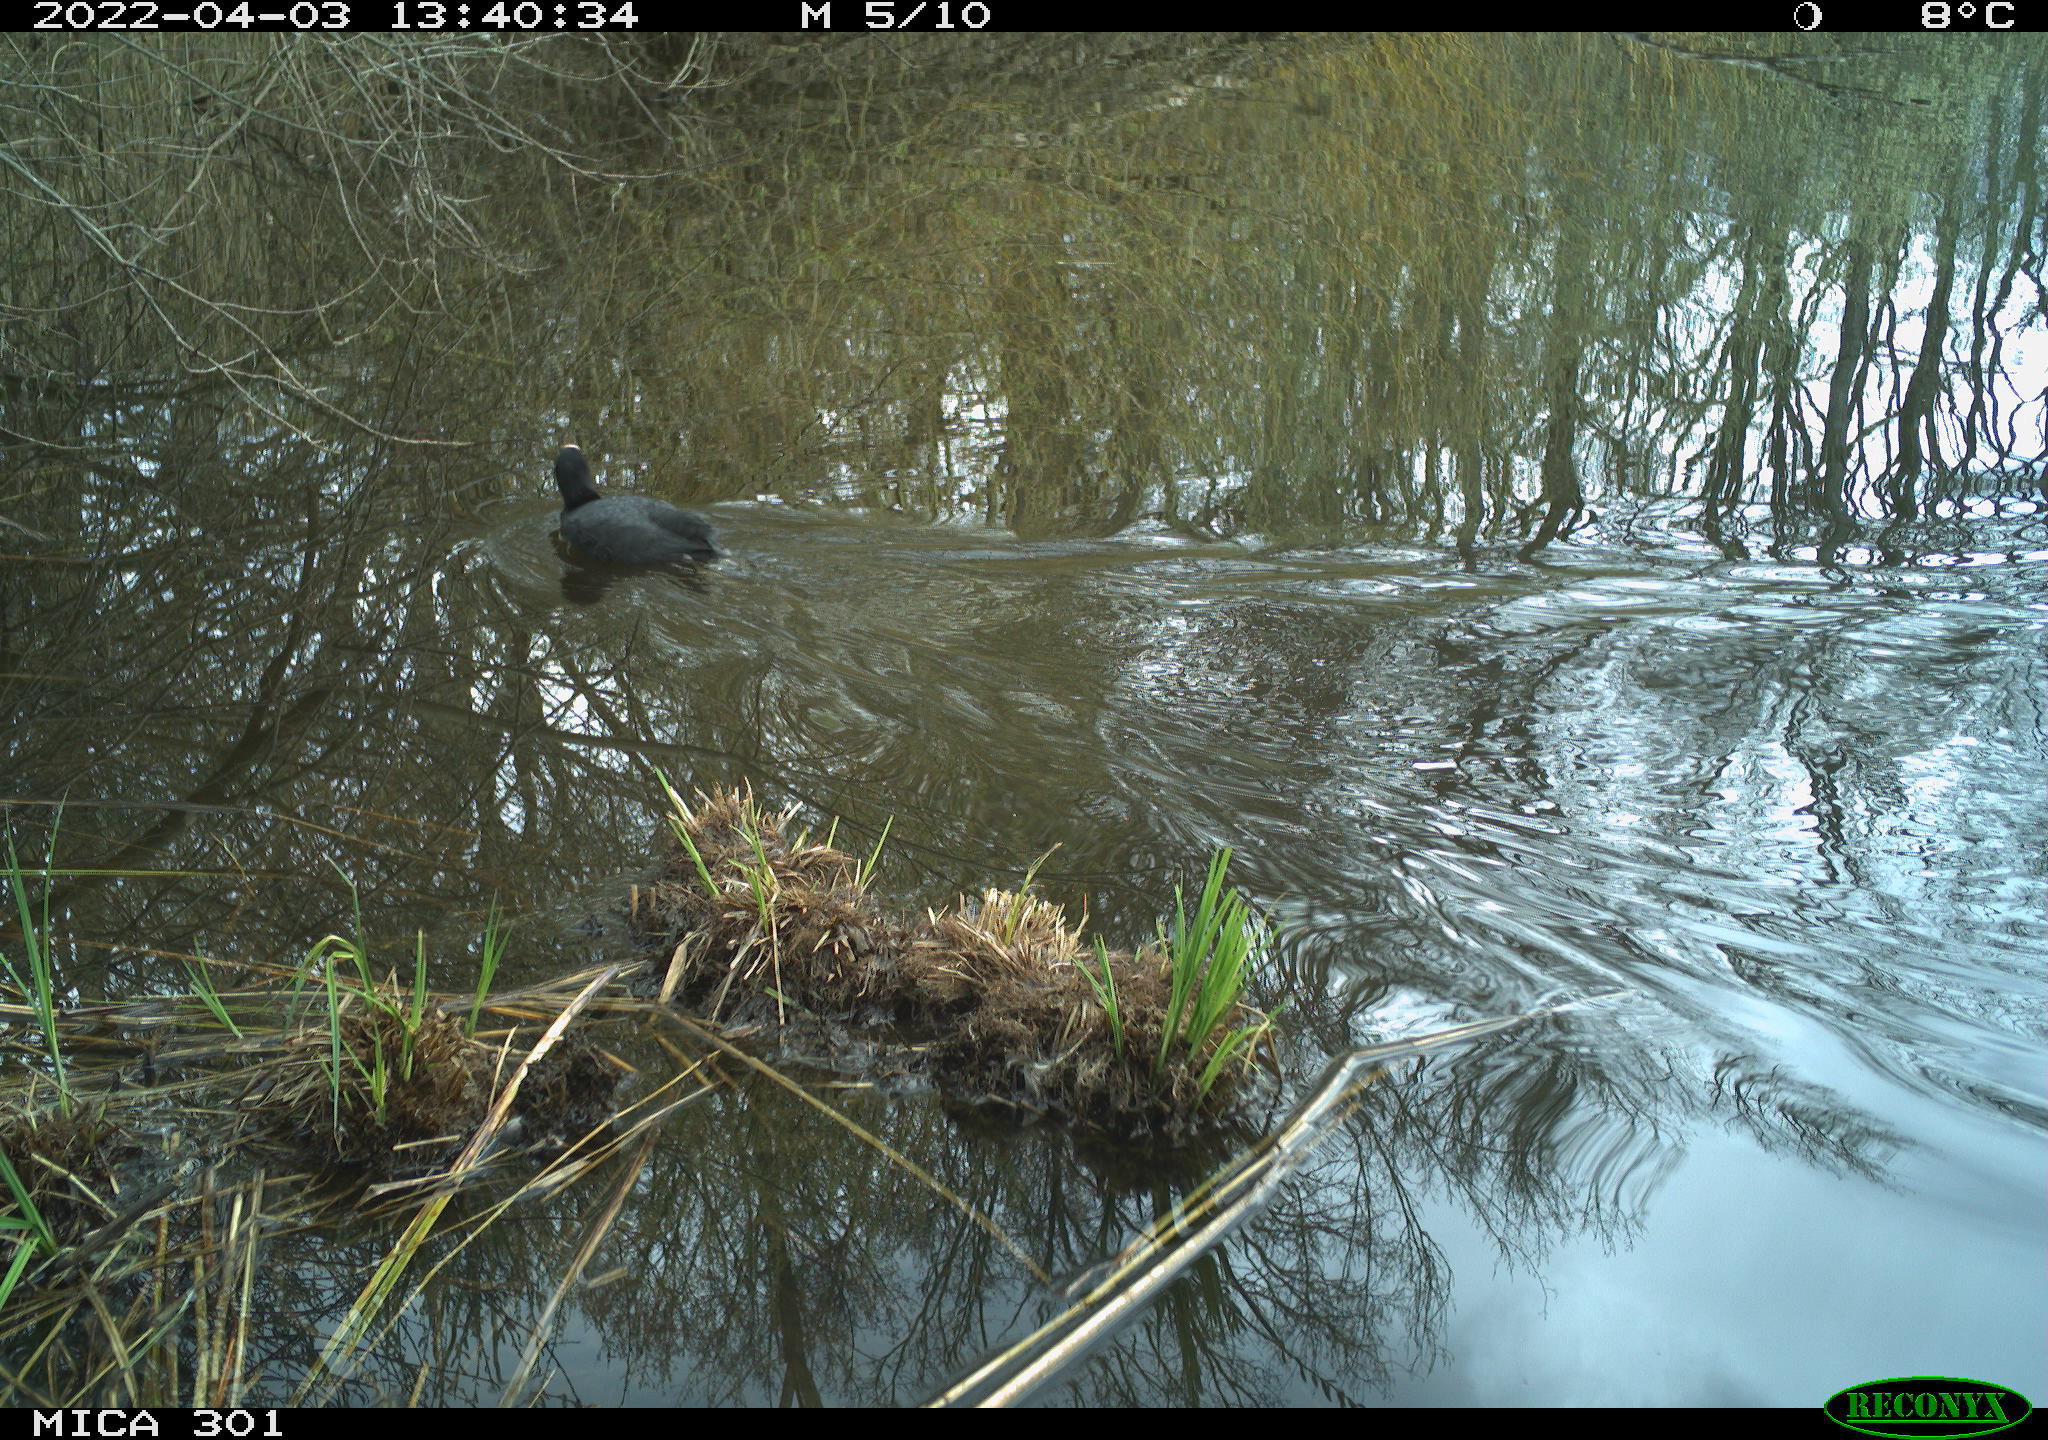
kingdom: Animalia
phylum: Chordata
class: Aves
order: Gruiformes
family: Rallidae
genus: Fulica
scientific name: Fulica atra
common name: Eurasian coot
